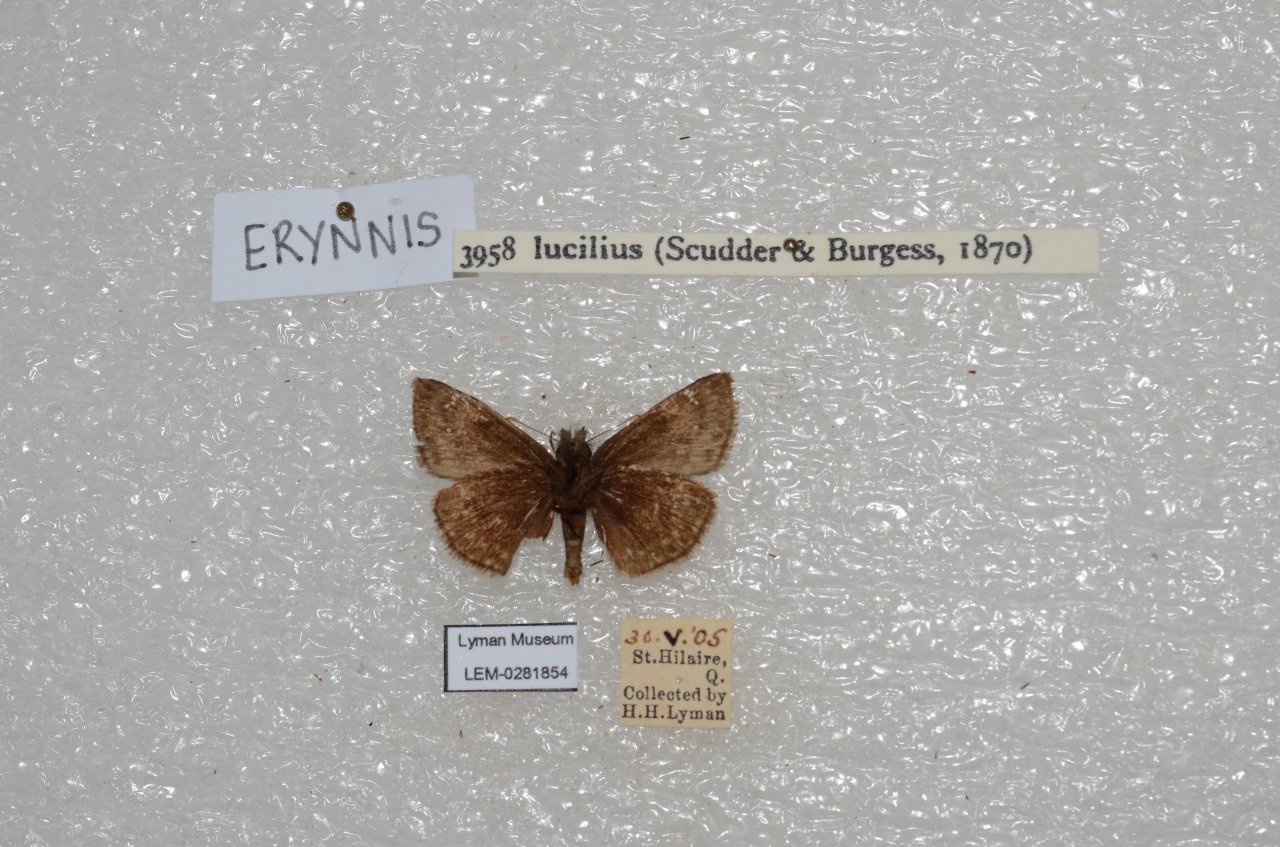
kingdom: Animalia
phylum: Arthropoda
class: Insecta
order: Lepidoptera
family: Hesperiidae
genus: Gesta
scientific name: Gesta
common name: Columbine Duskywing
